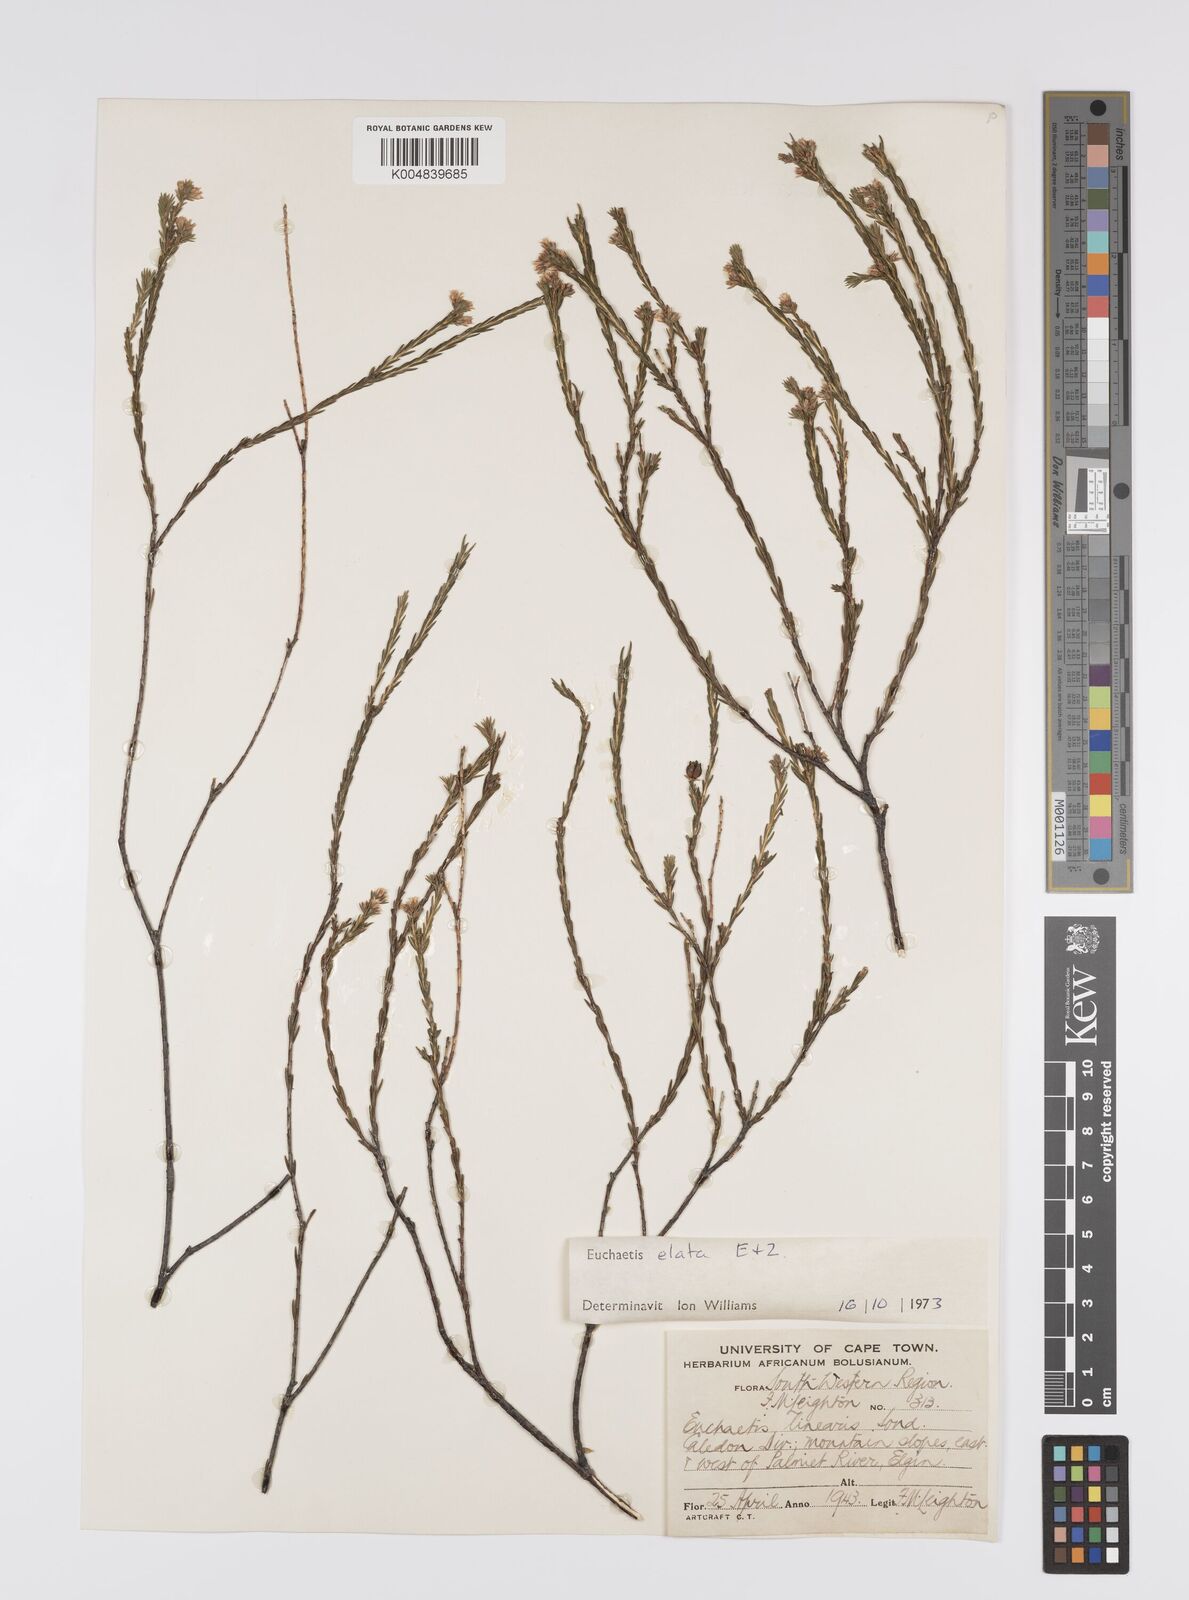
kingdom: Plantae
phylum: Tracheophyta
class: Magnoliopsida
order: Sapindales
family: Rutaceae
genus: Euchaetis
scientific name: Euchaetis elata
